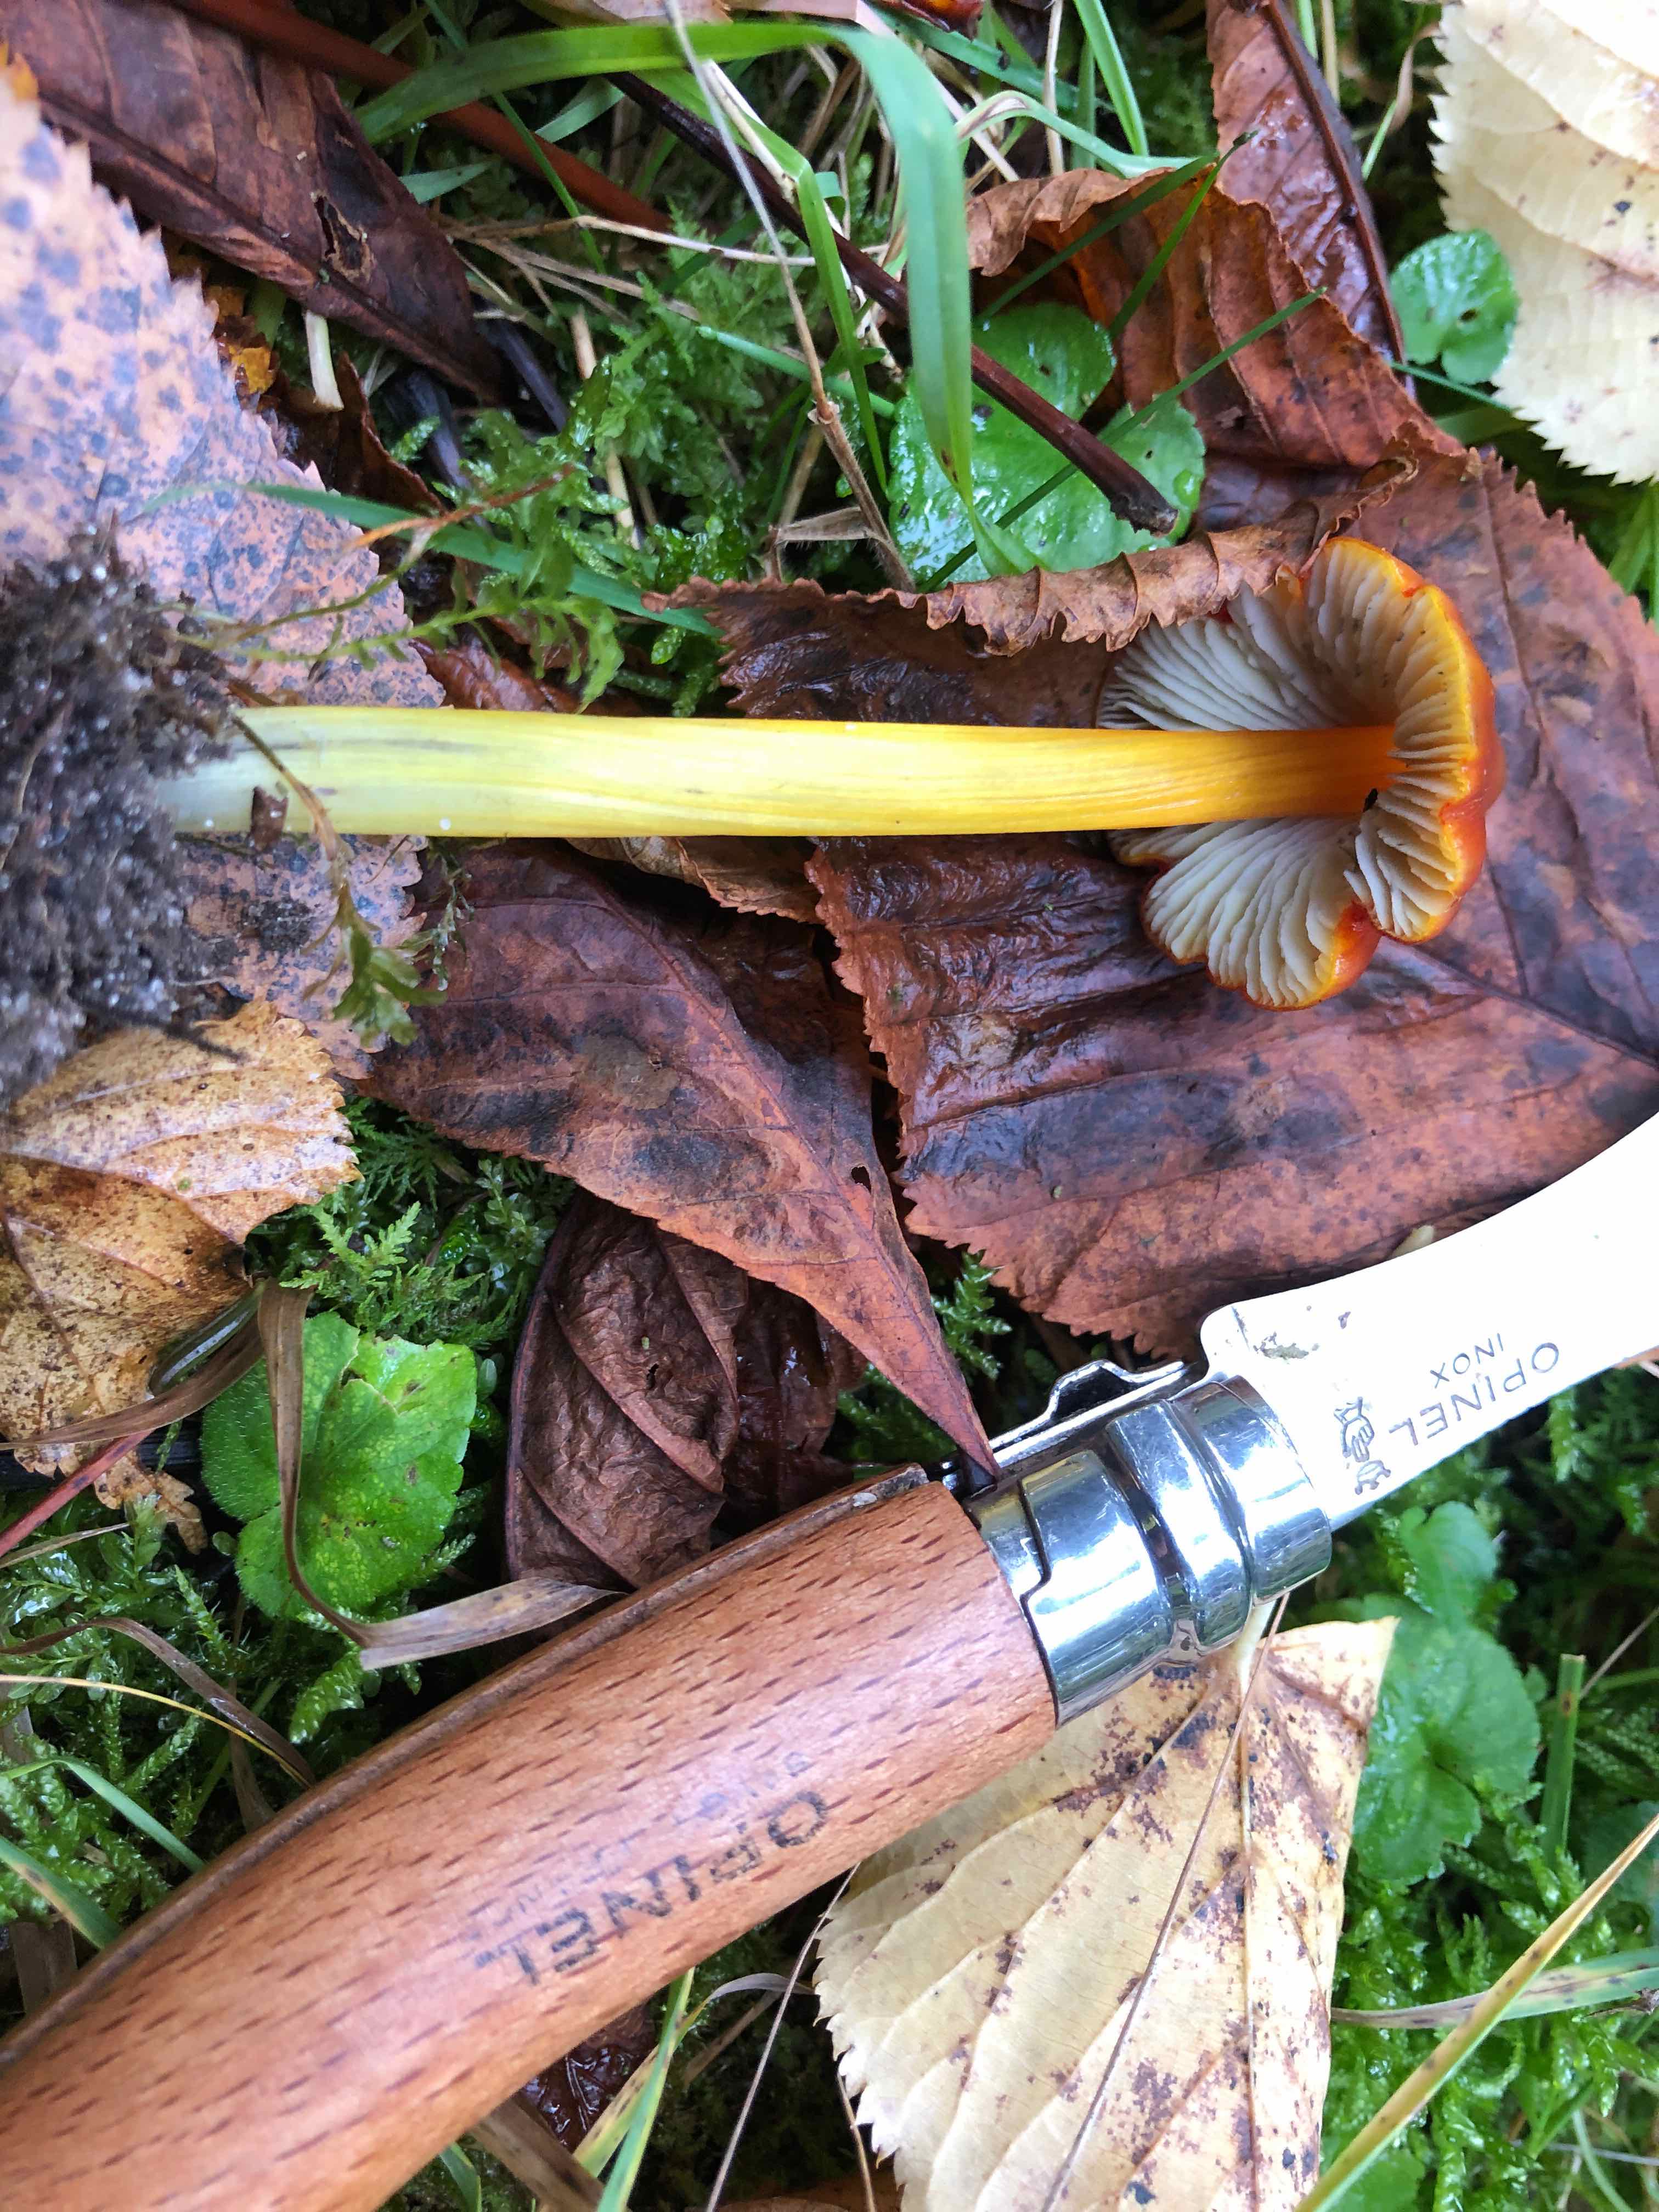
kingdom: Fungi
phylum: Basidiomycota
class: Agaricomycetes
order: Agaricales
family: Hygrophoraceae
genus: Hygrocybe
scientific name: Hygrocybe conica
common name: kegle-vokshat
